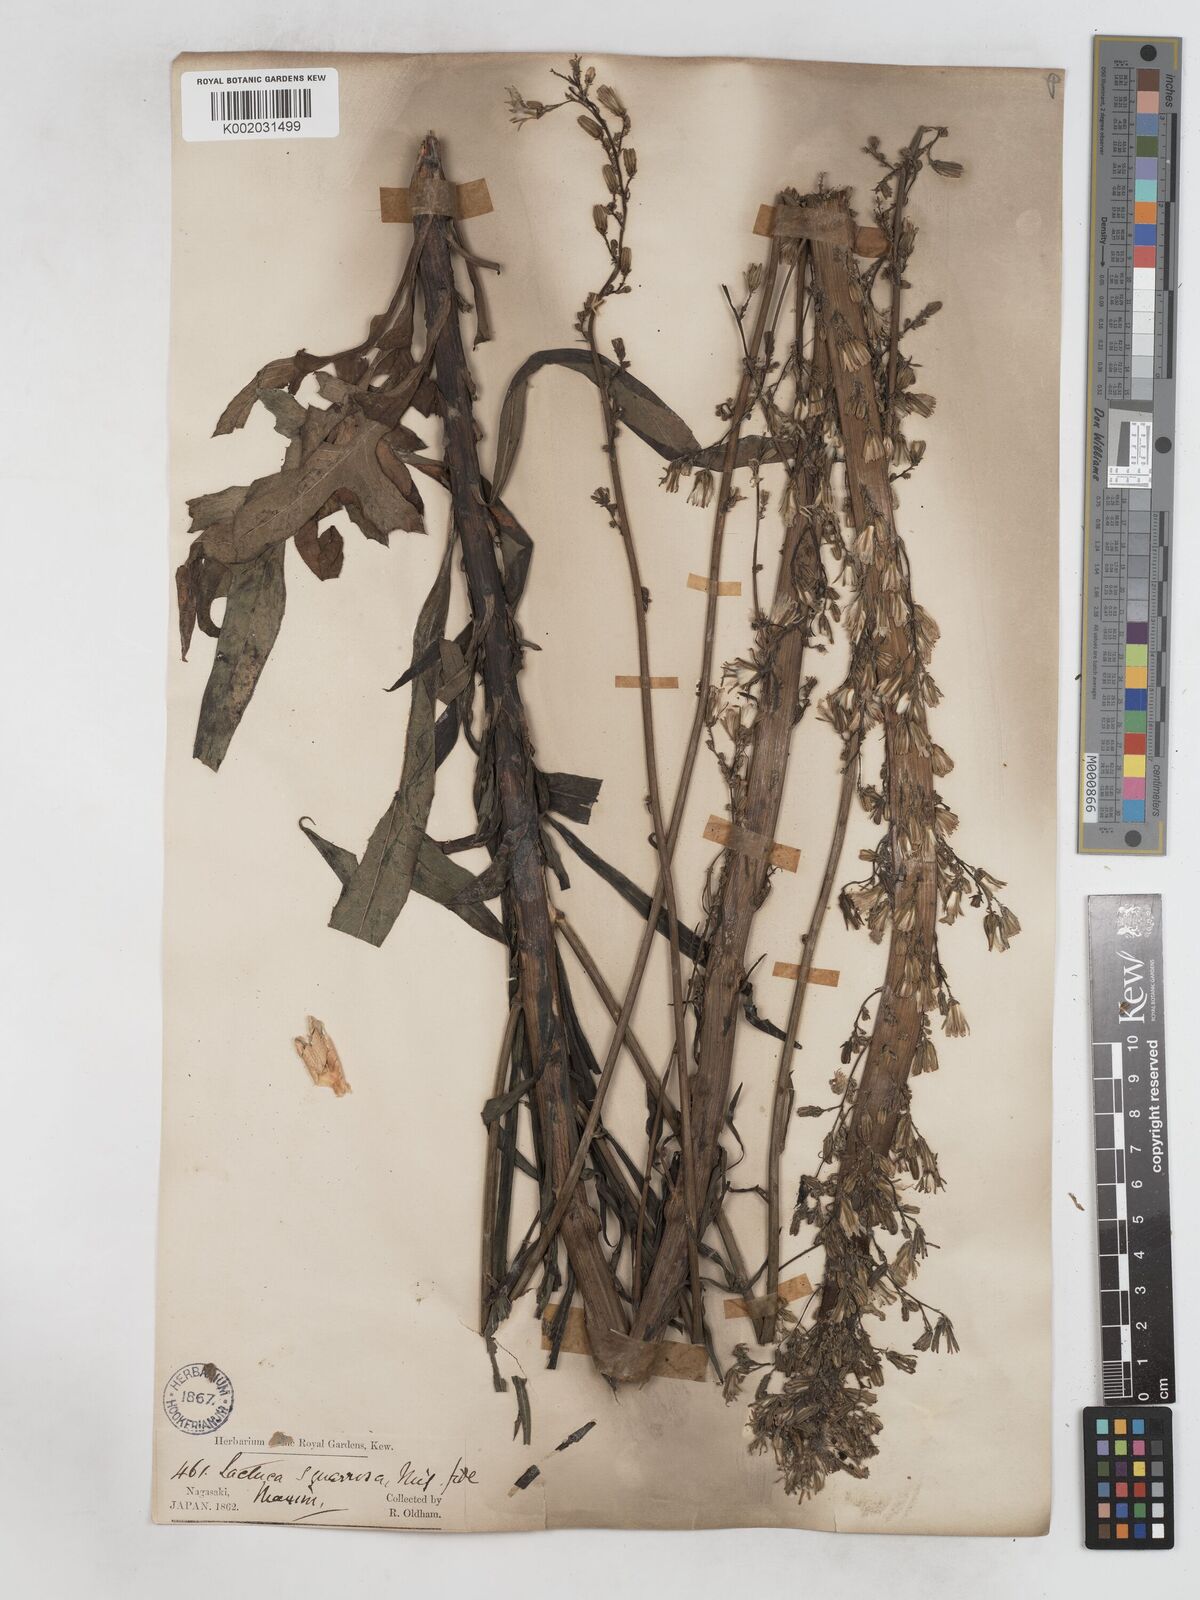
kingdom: Plantae
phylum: Tracheophyta
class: Magnoliopsida
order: Asterales
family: Asteraceae
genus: Lactuca
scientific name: Lactuca indica
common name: Wild lettuce
